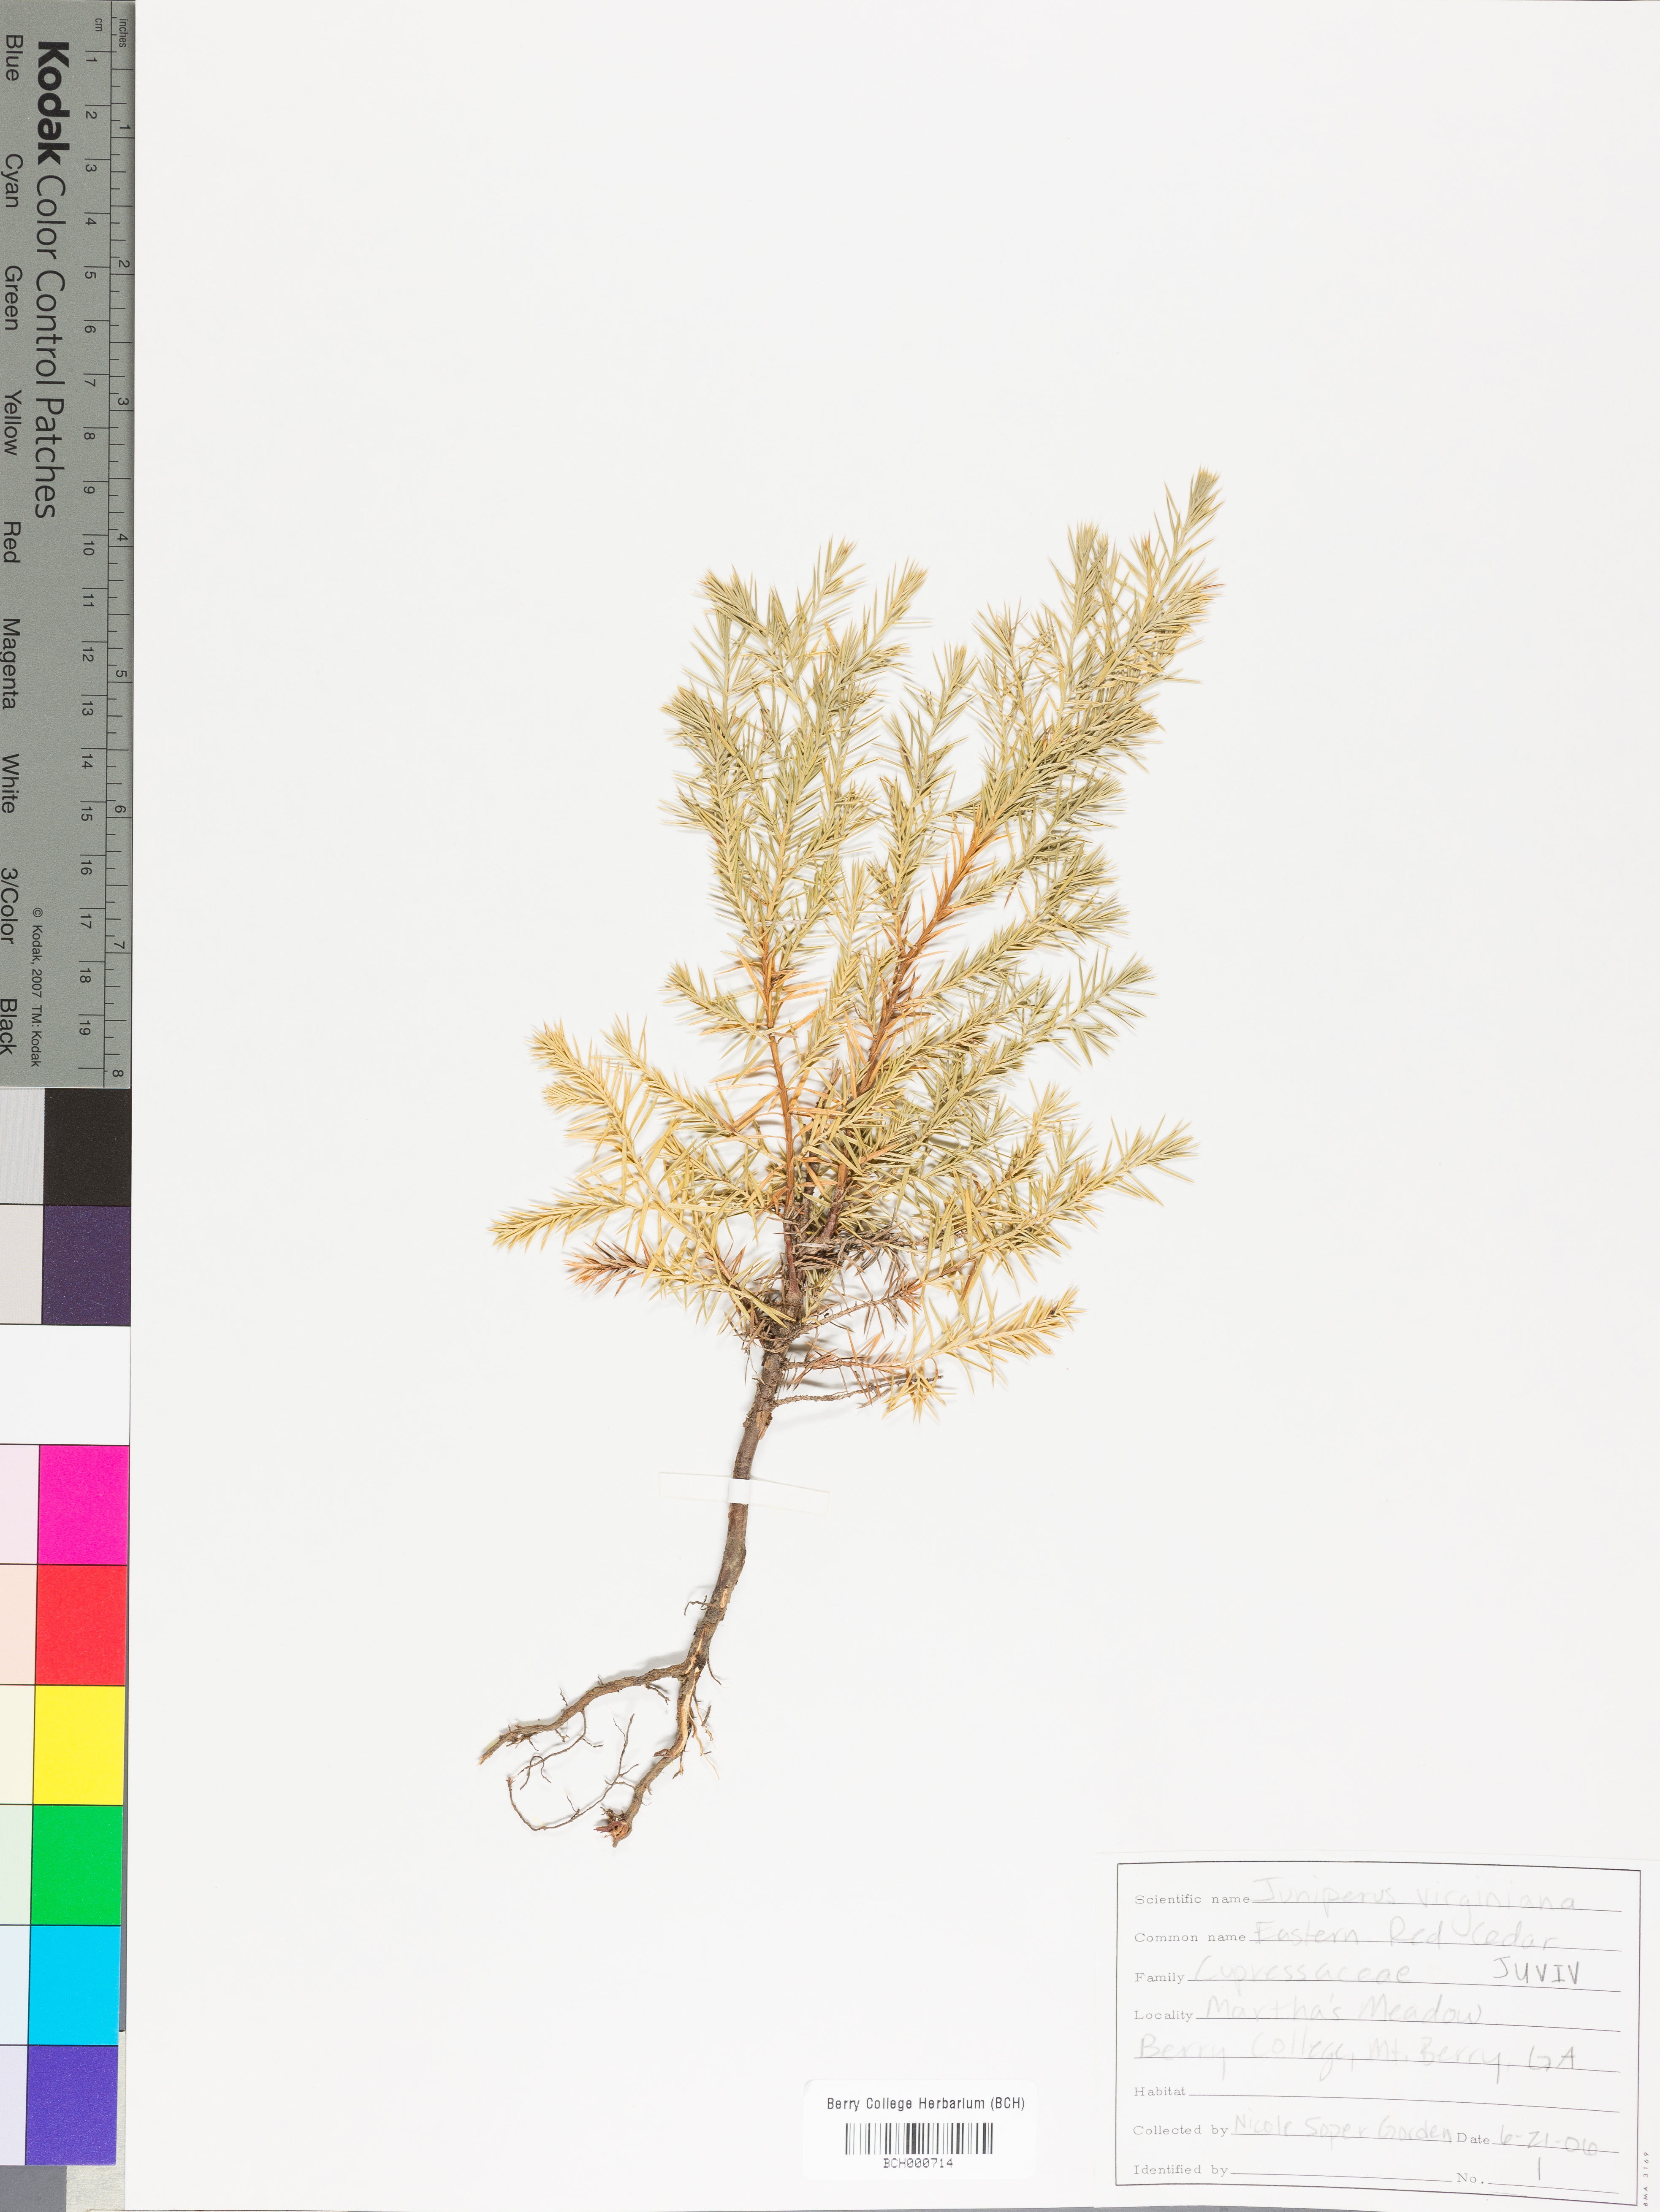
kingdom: Plantae
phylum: Tracheophyta
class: Pinopsida
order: Pinales
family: Cupressaceae
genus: Juniperus
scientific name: Juniperus virginiana
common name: Red juniper
